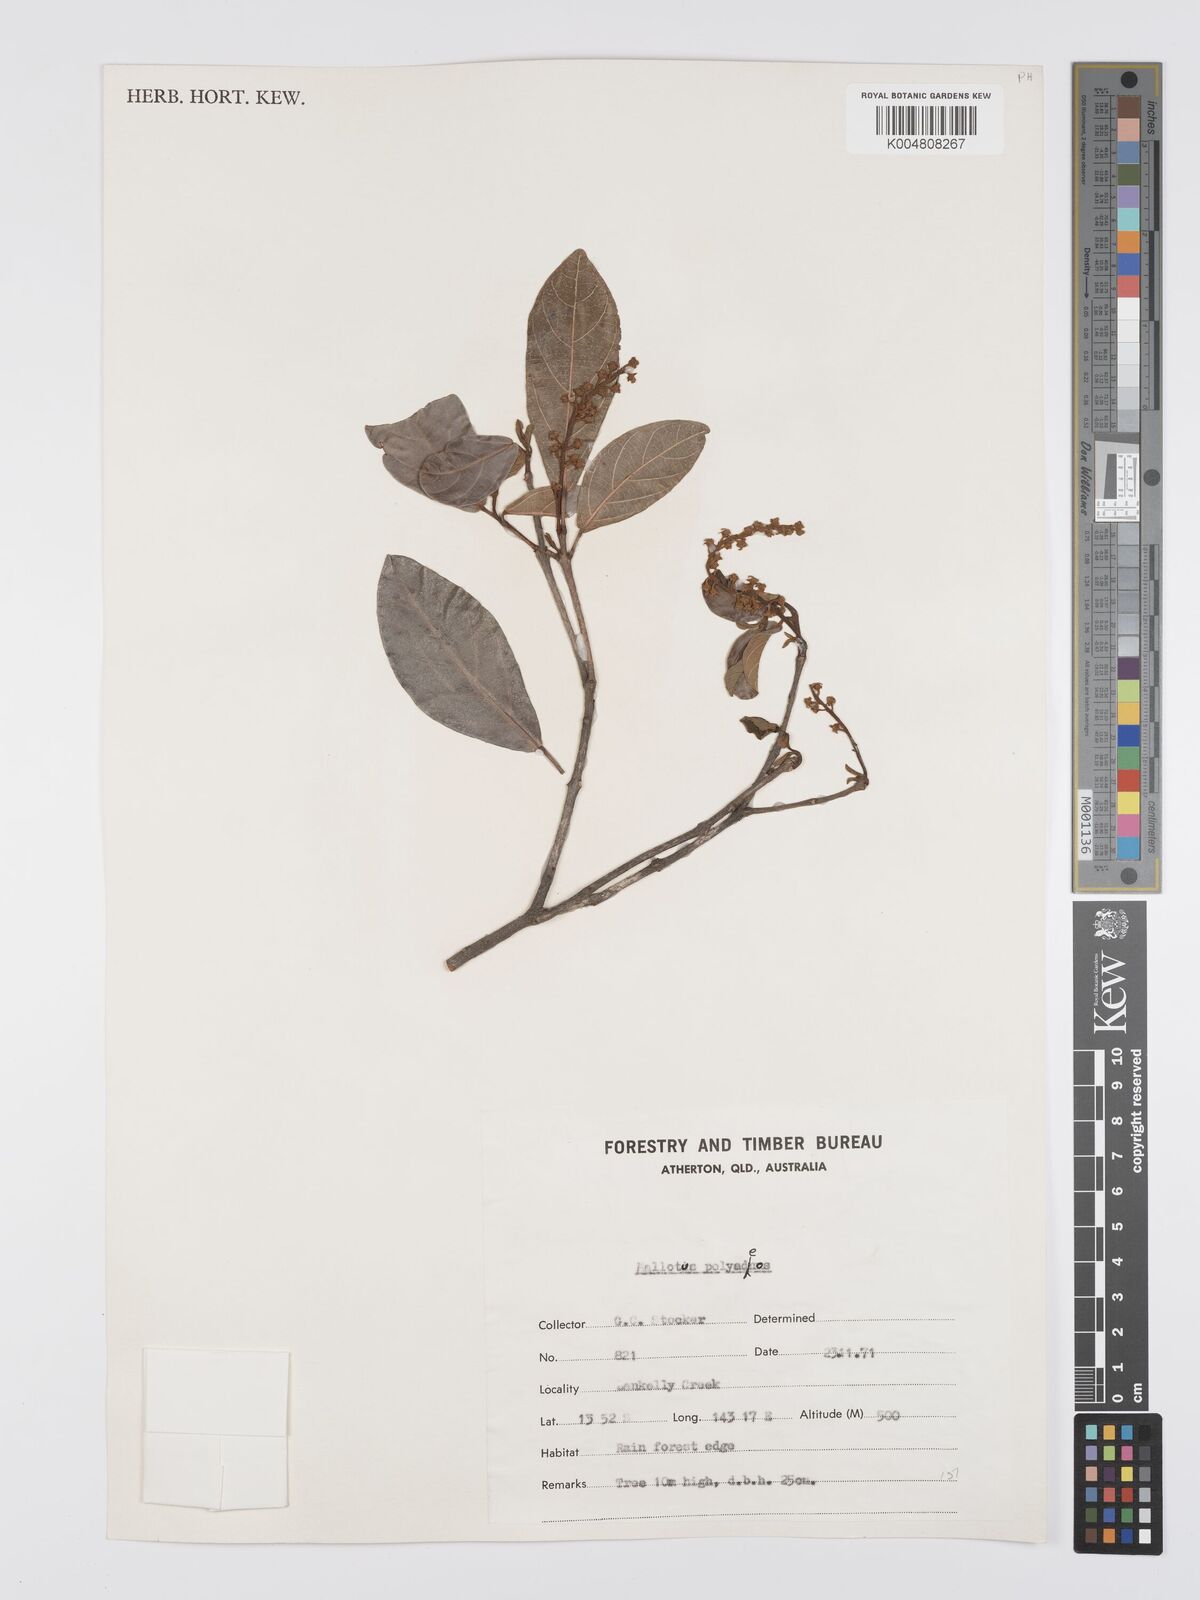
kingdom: Plantae
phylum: Tracheophyta
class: Magnoliopsida
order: Malpighiales
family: Euphorbiaceae
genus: Mallotus
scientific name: Mallotus polyadenos
